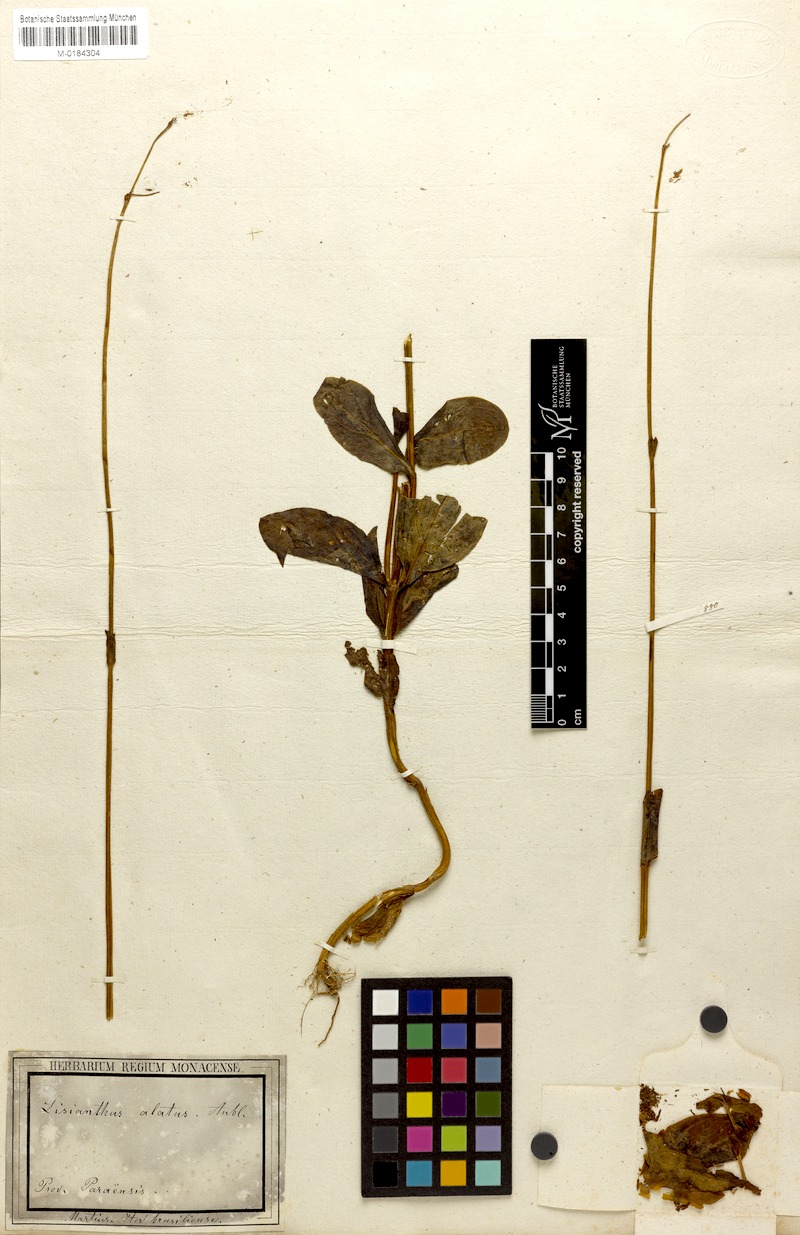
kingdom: Plantae
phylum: Tracheophyta
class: Magnoliopsida
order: Gentianales
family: Gentianaceae
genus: Chelonanthus
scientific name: Chelonanthus alatus
